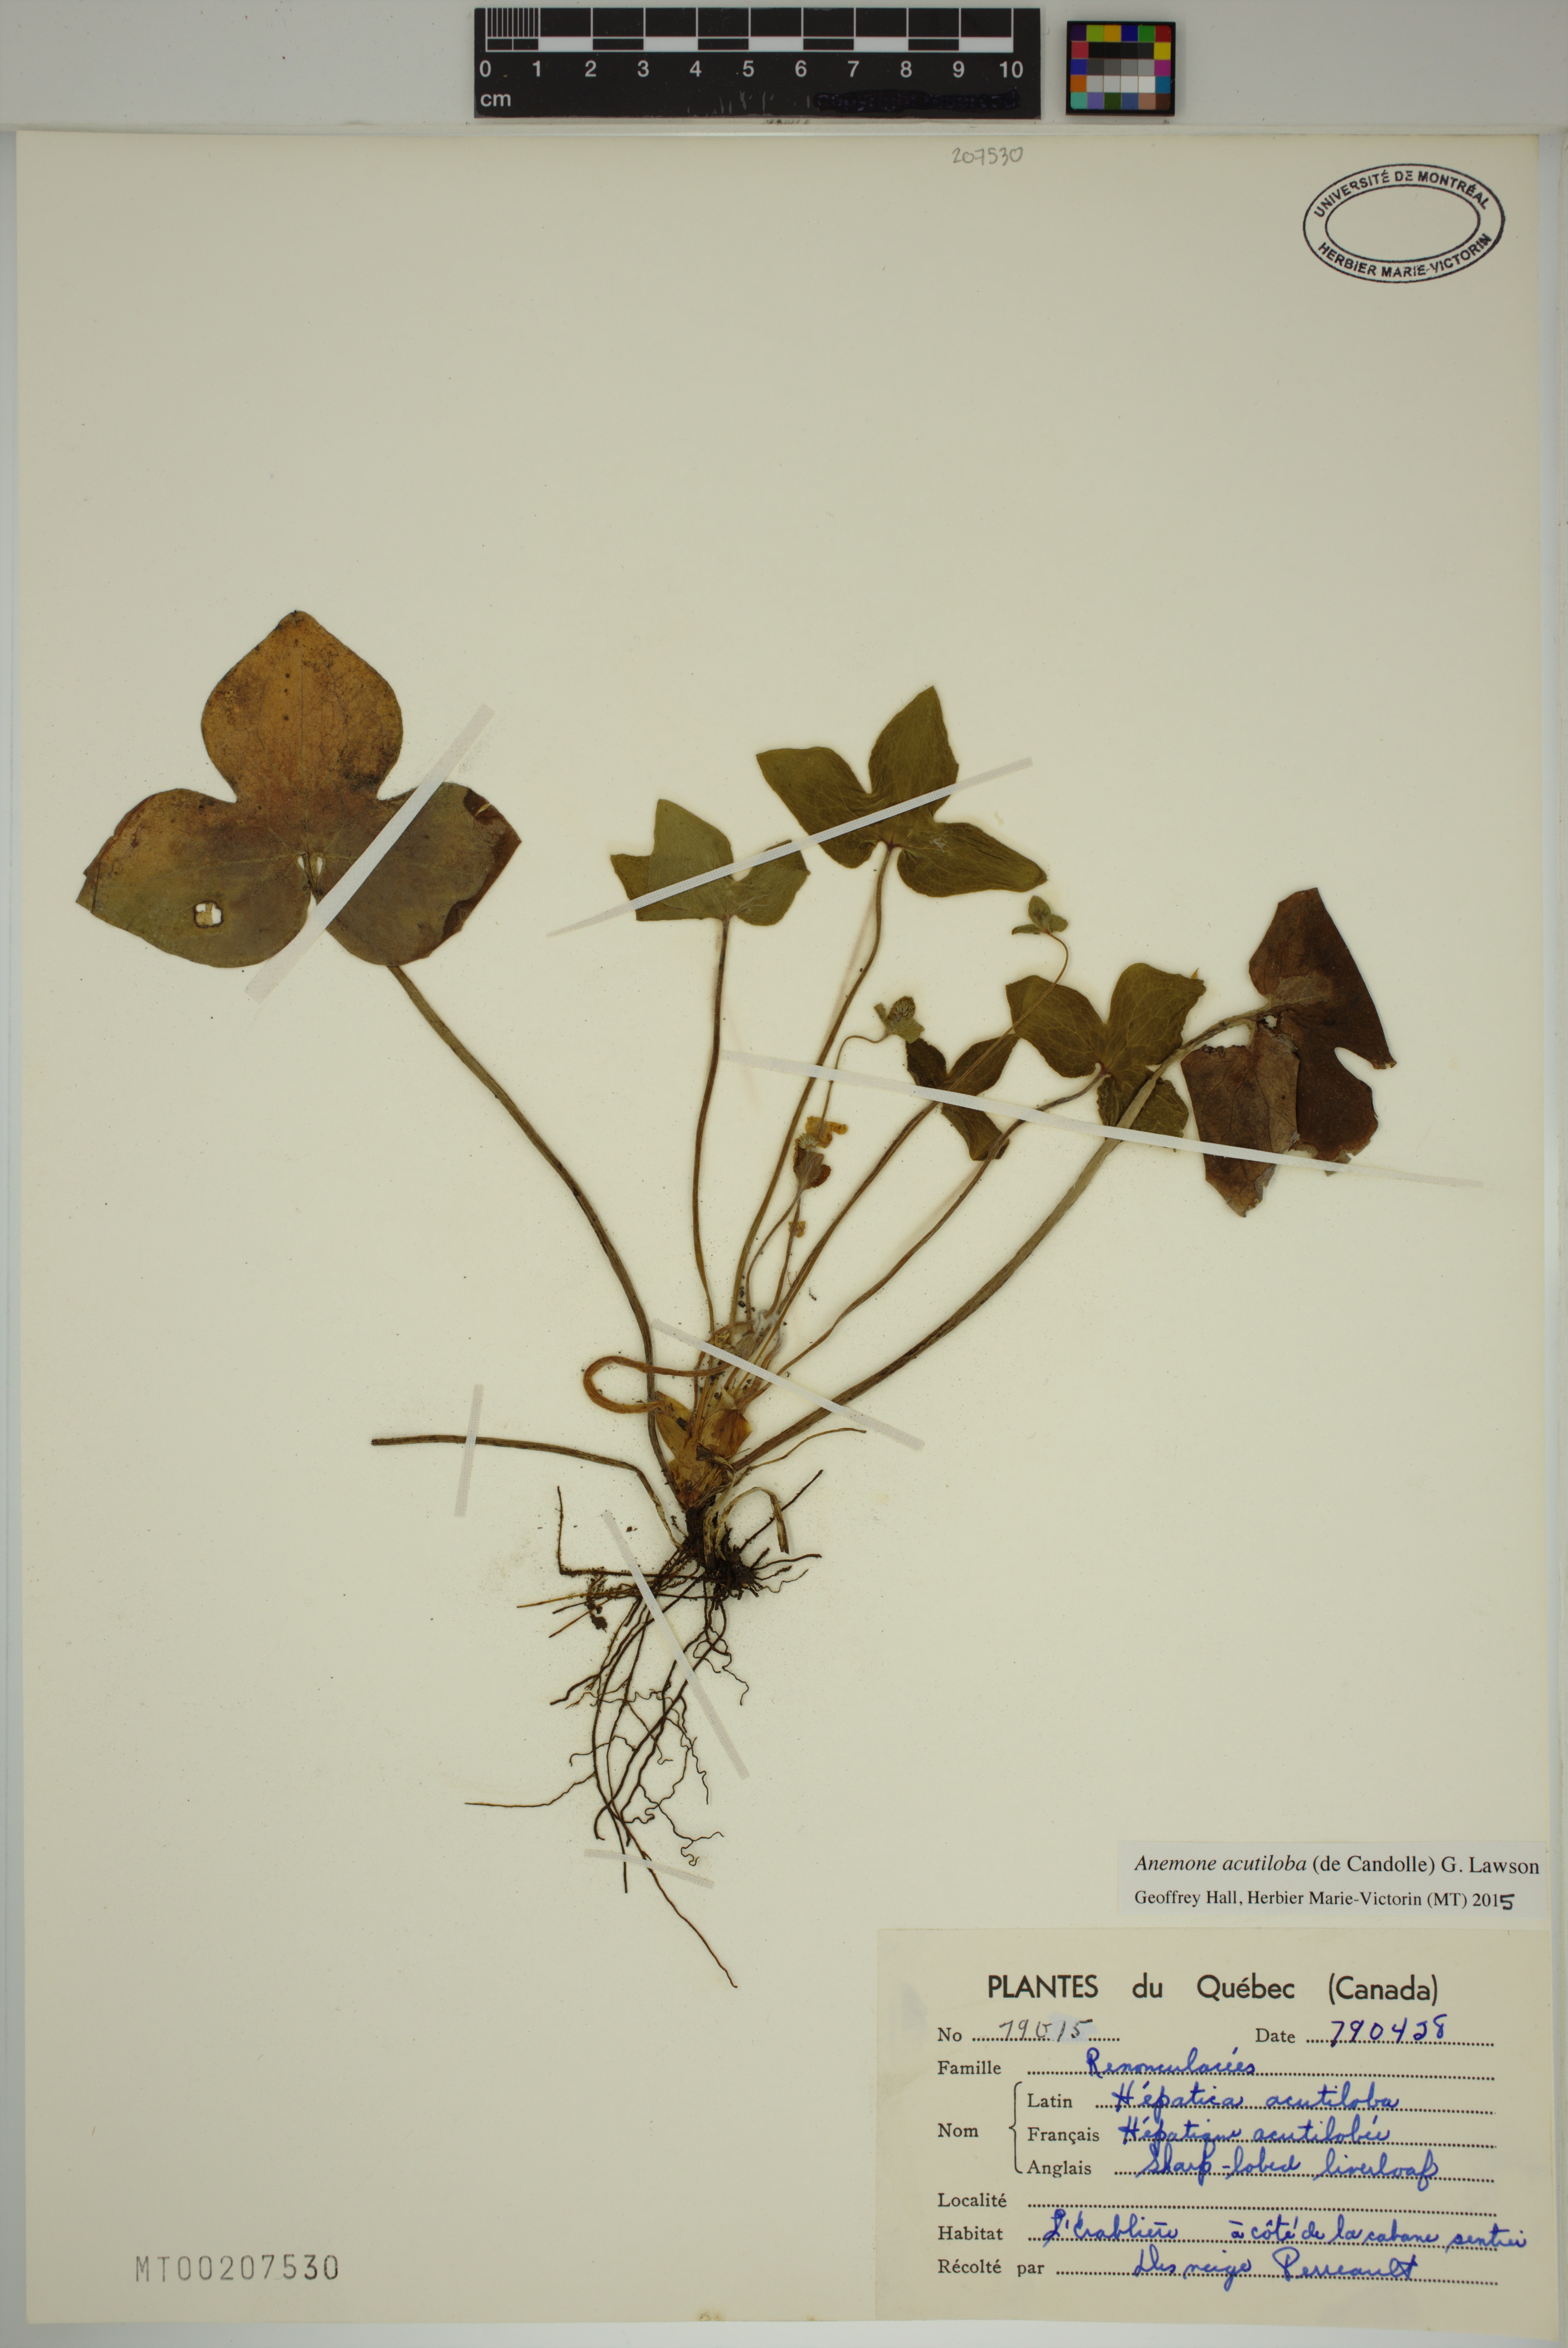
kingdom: Plantae
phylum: Tracheophyta
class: Magnoliopsida
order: Ranunculales
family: Ranunculaceae
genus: Hepatica
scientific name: Hepatica acutiloba
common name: Sharp-lobed hepatica
